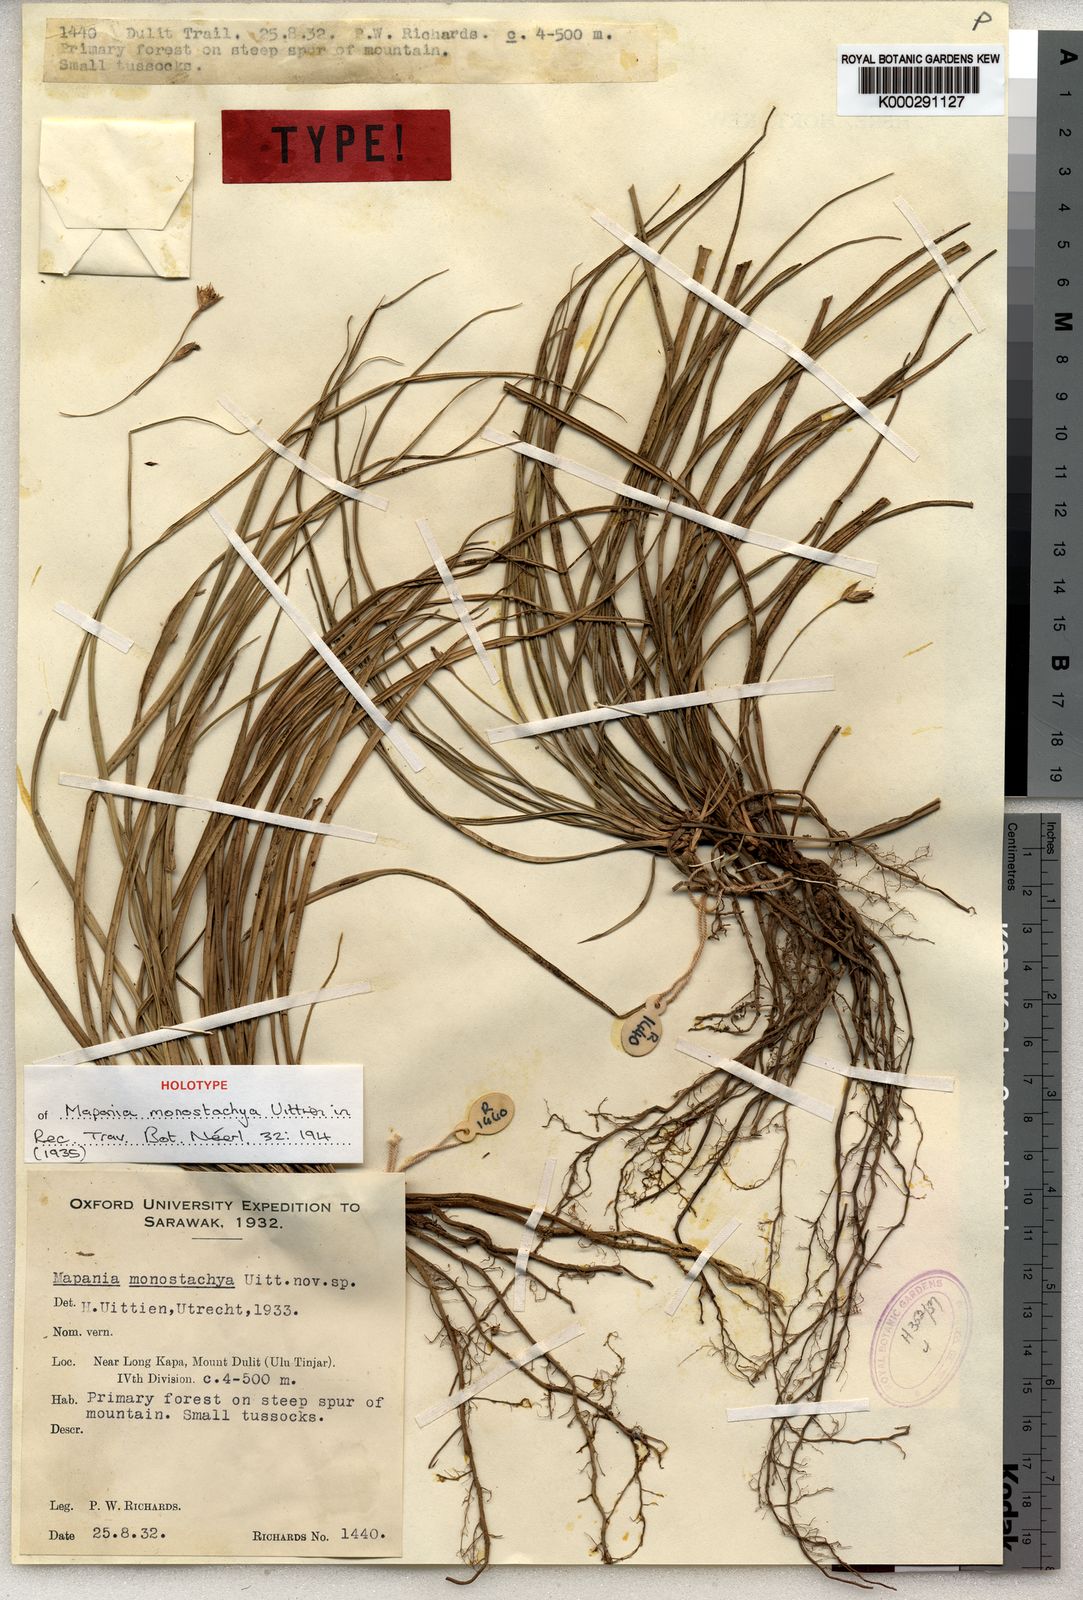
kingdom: Plantae
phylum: Tracheophyta
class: Liliopsida
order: Poales
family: Cyperaceae
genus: Mapania
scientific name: Mapania monostachya
